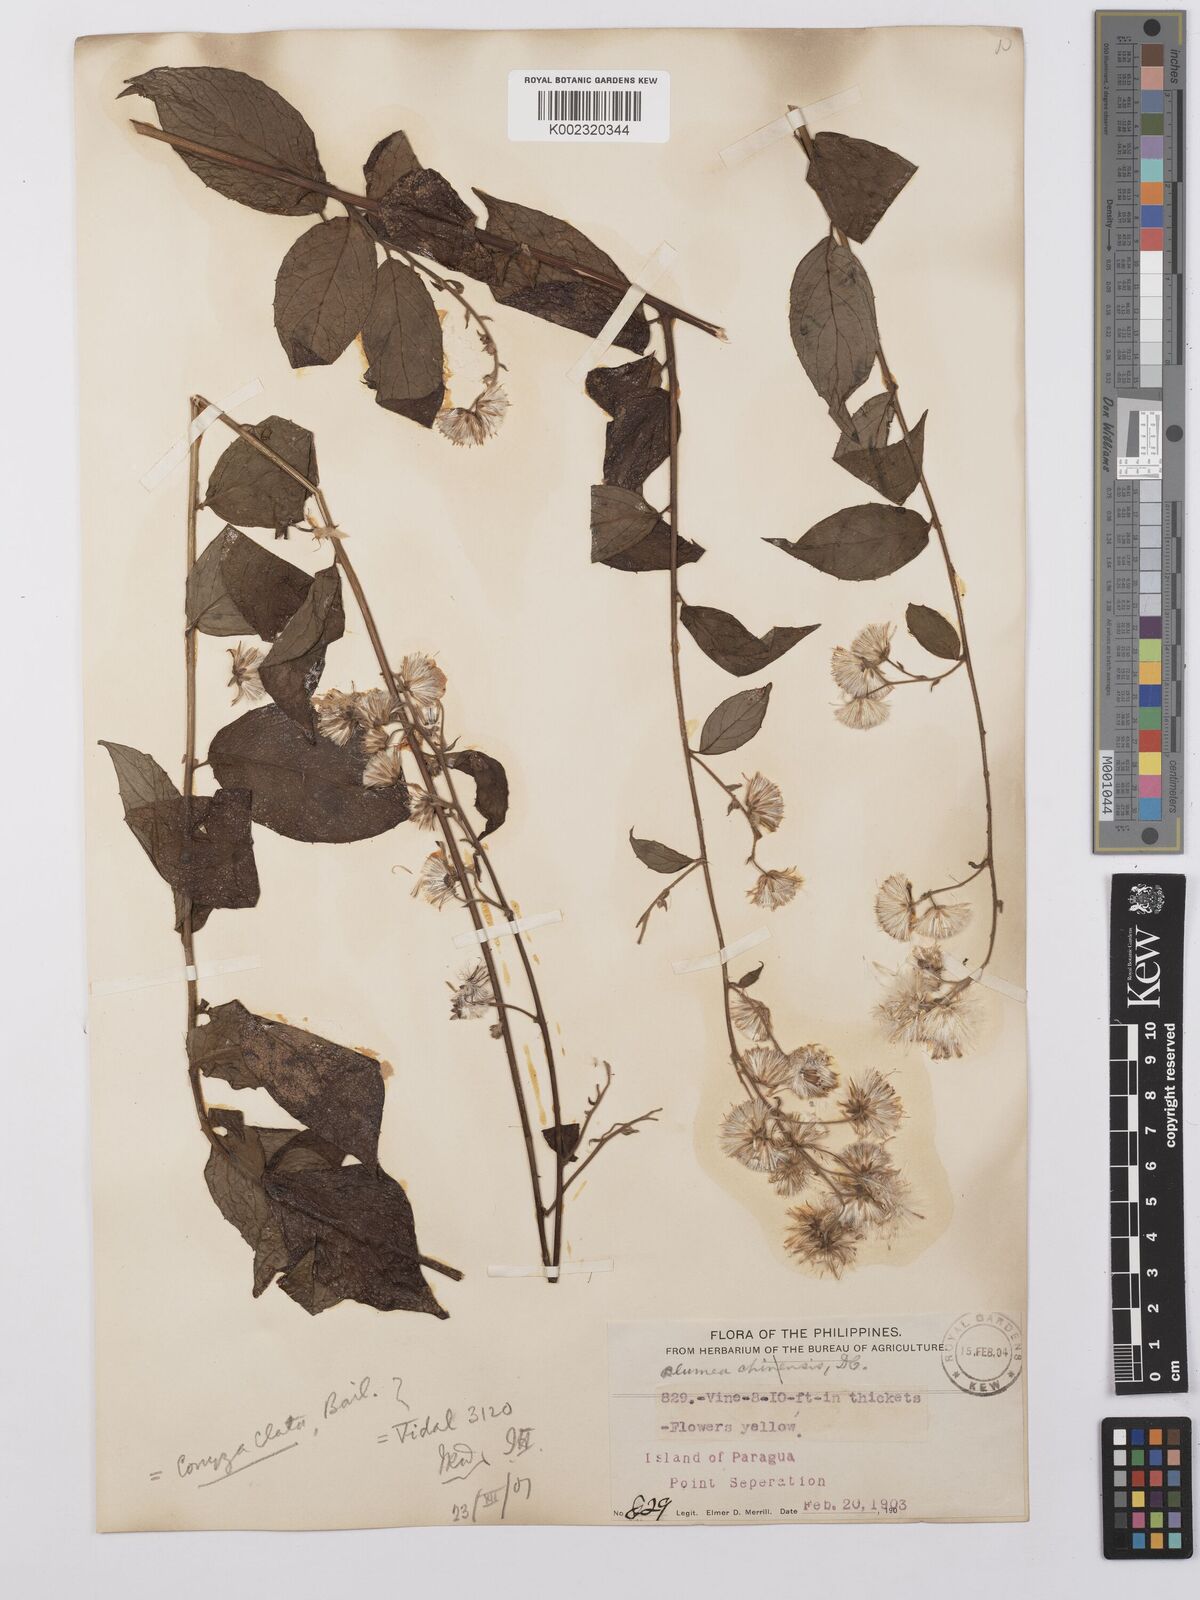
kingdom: Plantae
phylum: Tracheophyta
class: Magnoliopsida
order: Asterales
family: Asteraceae
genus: Erigeron
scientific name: Erigeron floribundus
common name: Bilbao fleabane
